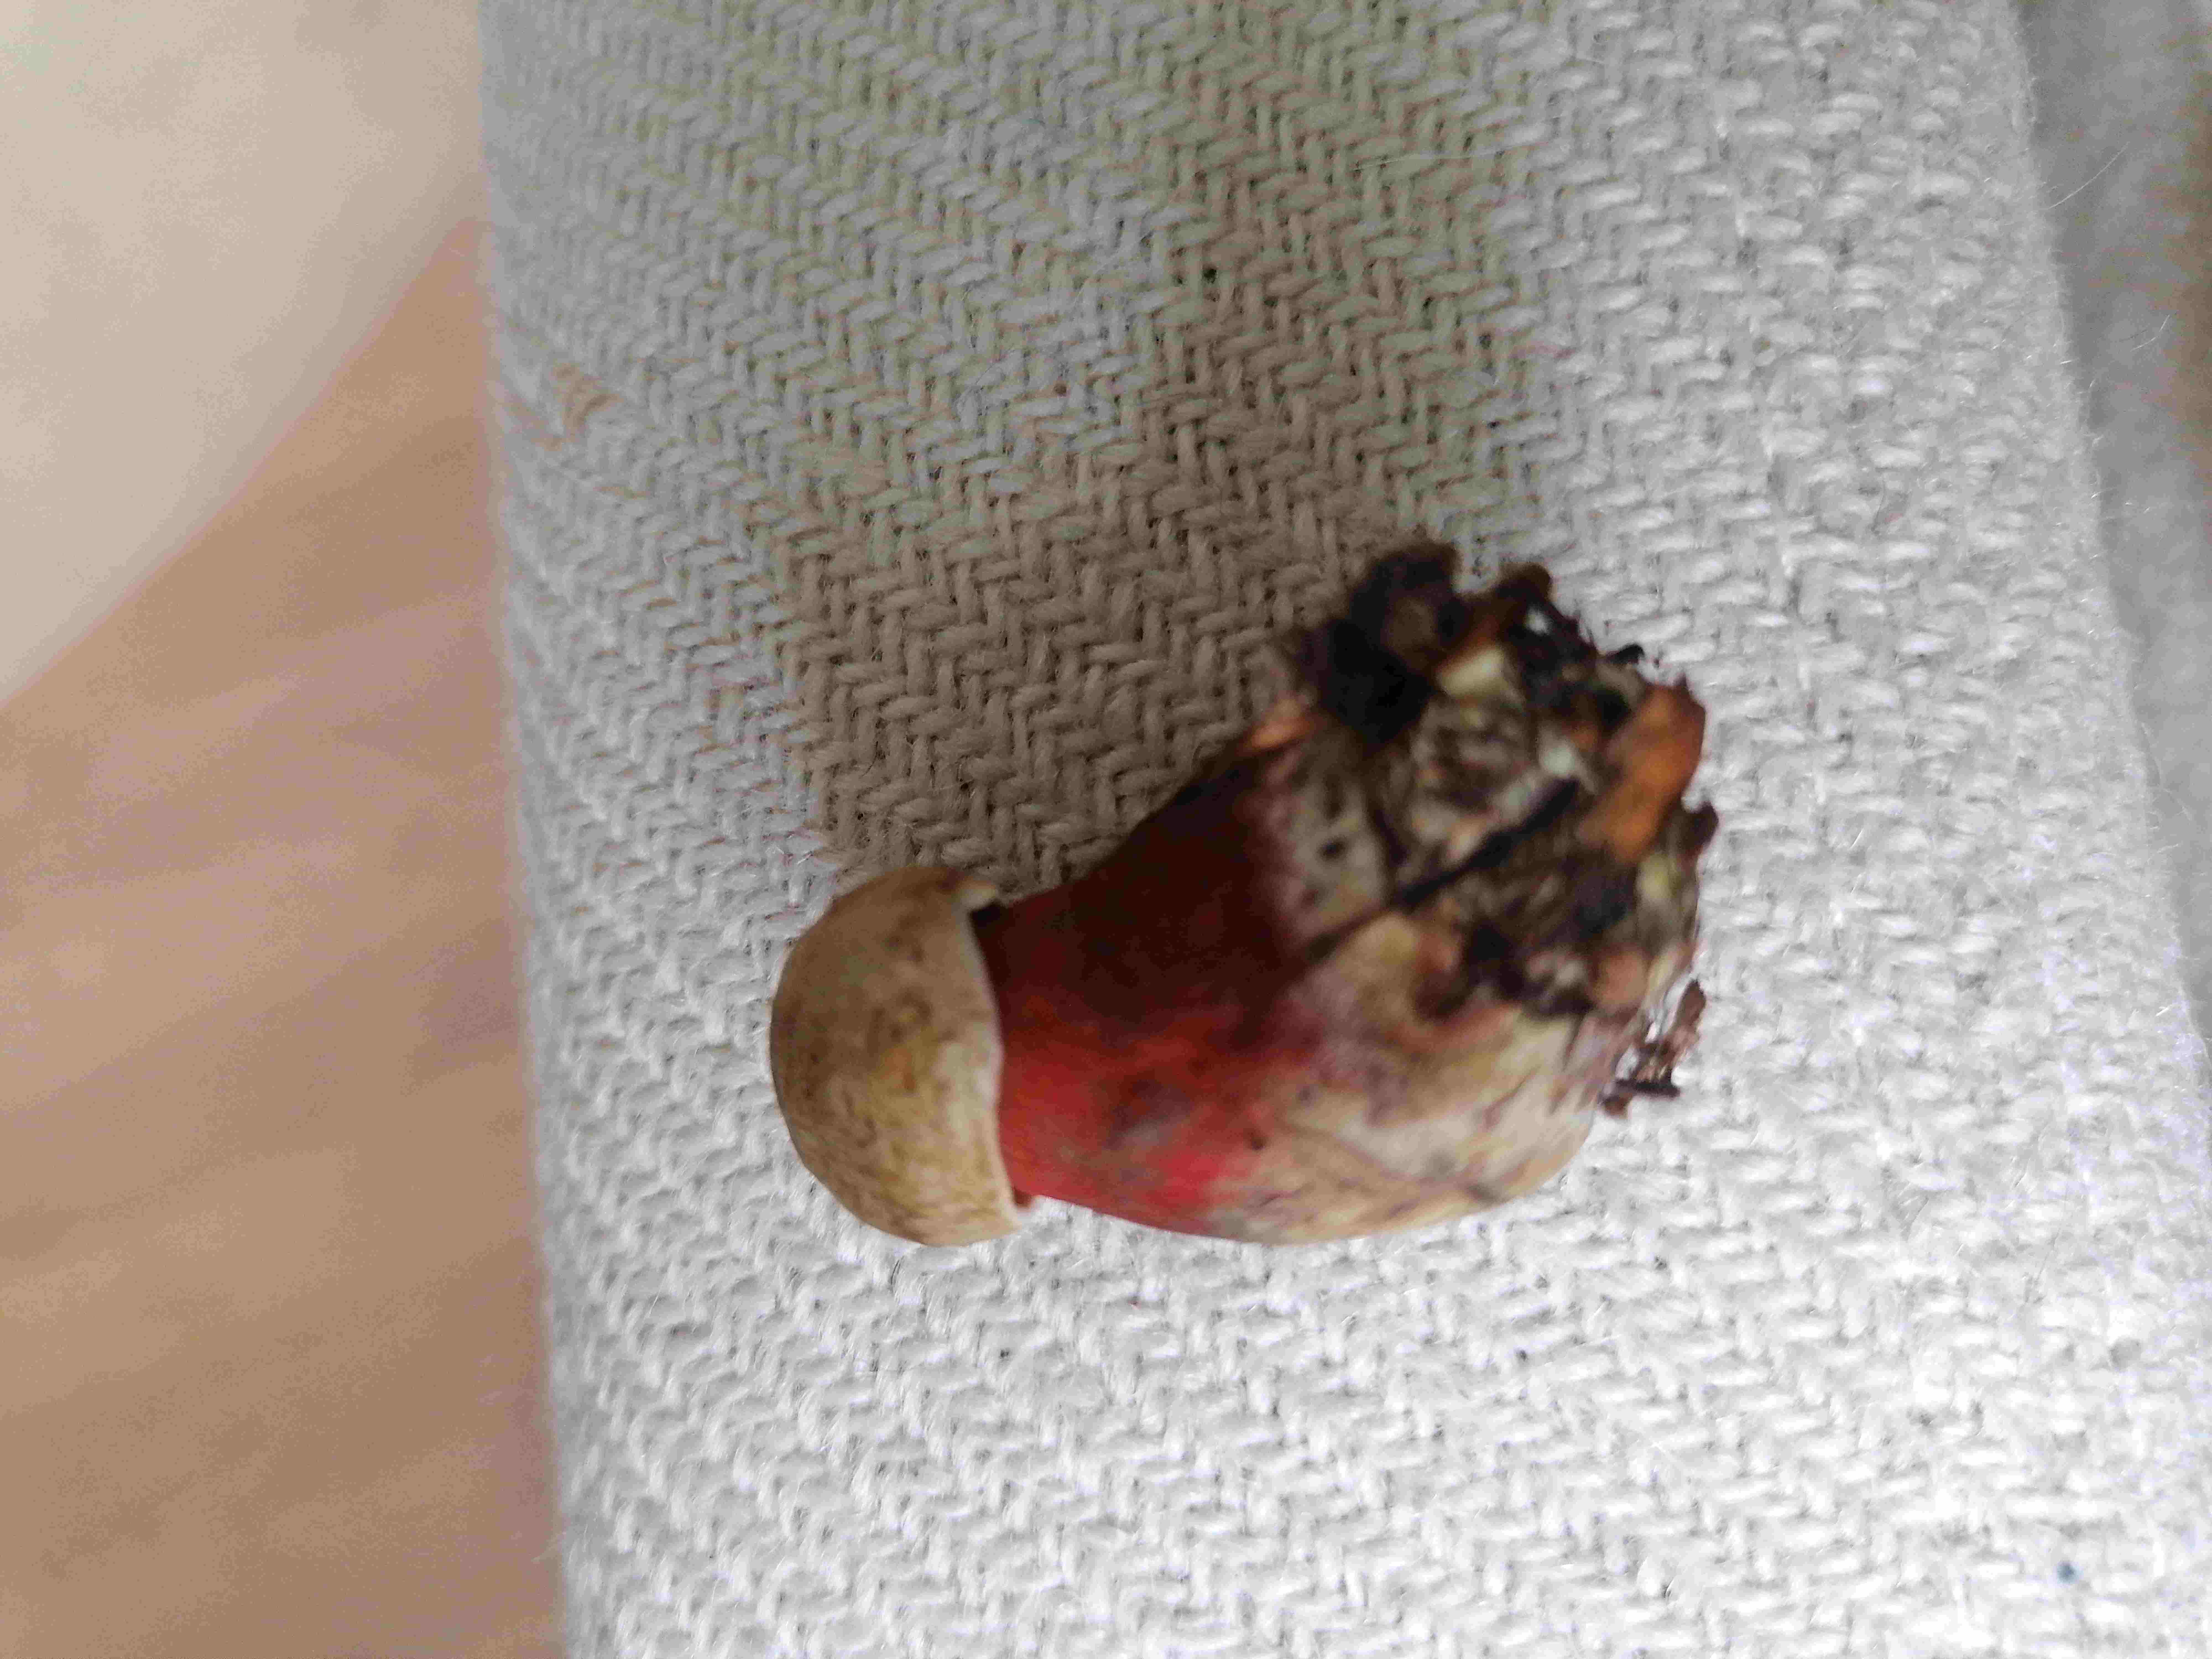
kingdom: Fungi
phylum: Basidiomycota
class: Agaricomycetes
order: Boletales
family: Boletaceae
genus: Neoboletus
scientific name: Neoboletus erythropus
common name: punktstokket indigorørhat
